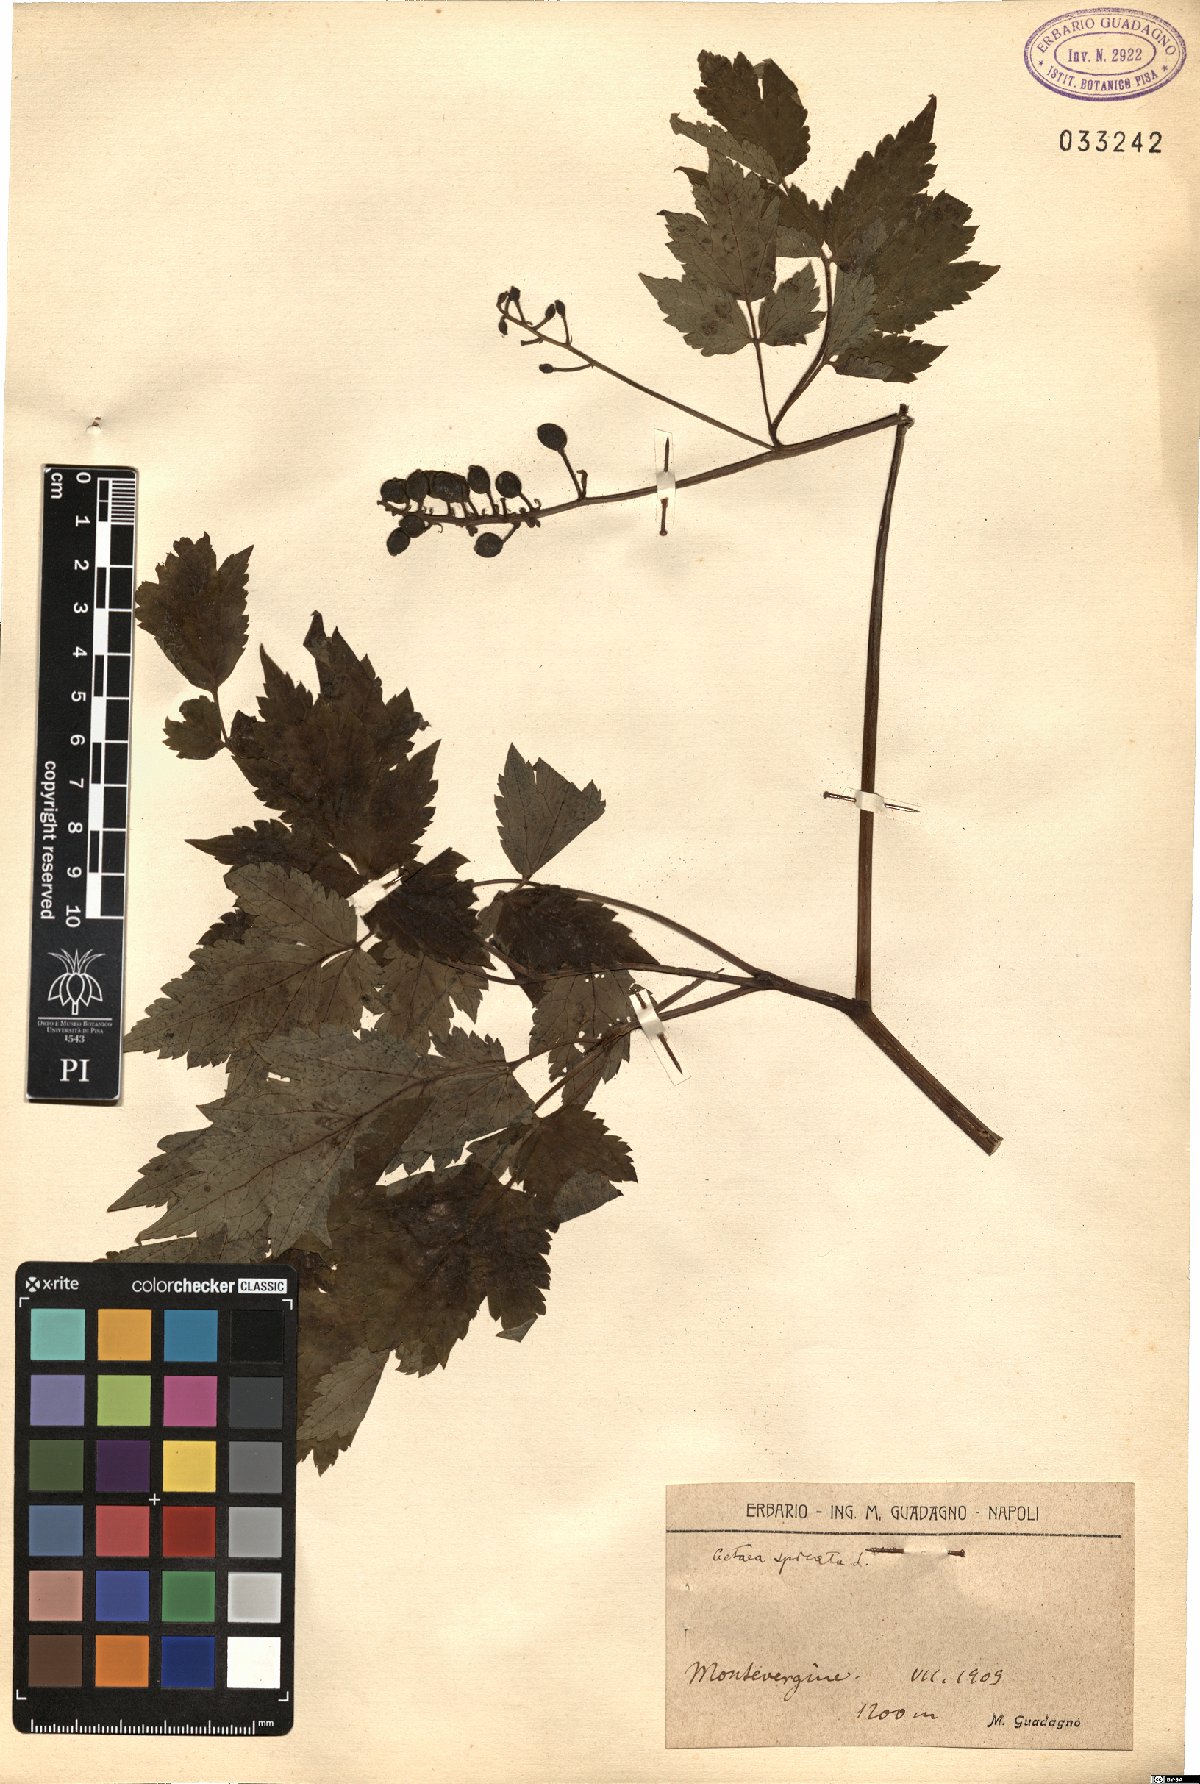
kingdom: Plantae
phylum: Tracheophyta
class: Magnoliopsida
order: Ranunculales
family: Ranunculaceae
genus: Actaea
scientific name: Actaea spicata
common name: Baneberry
